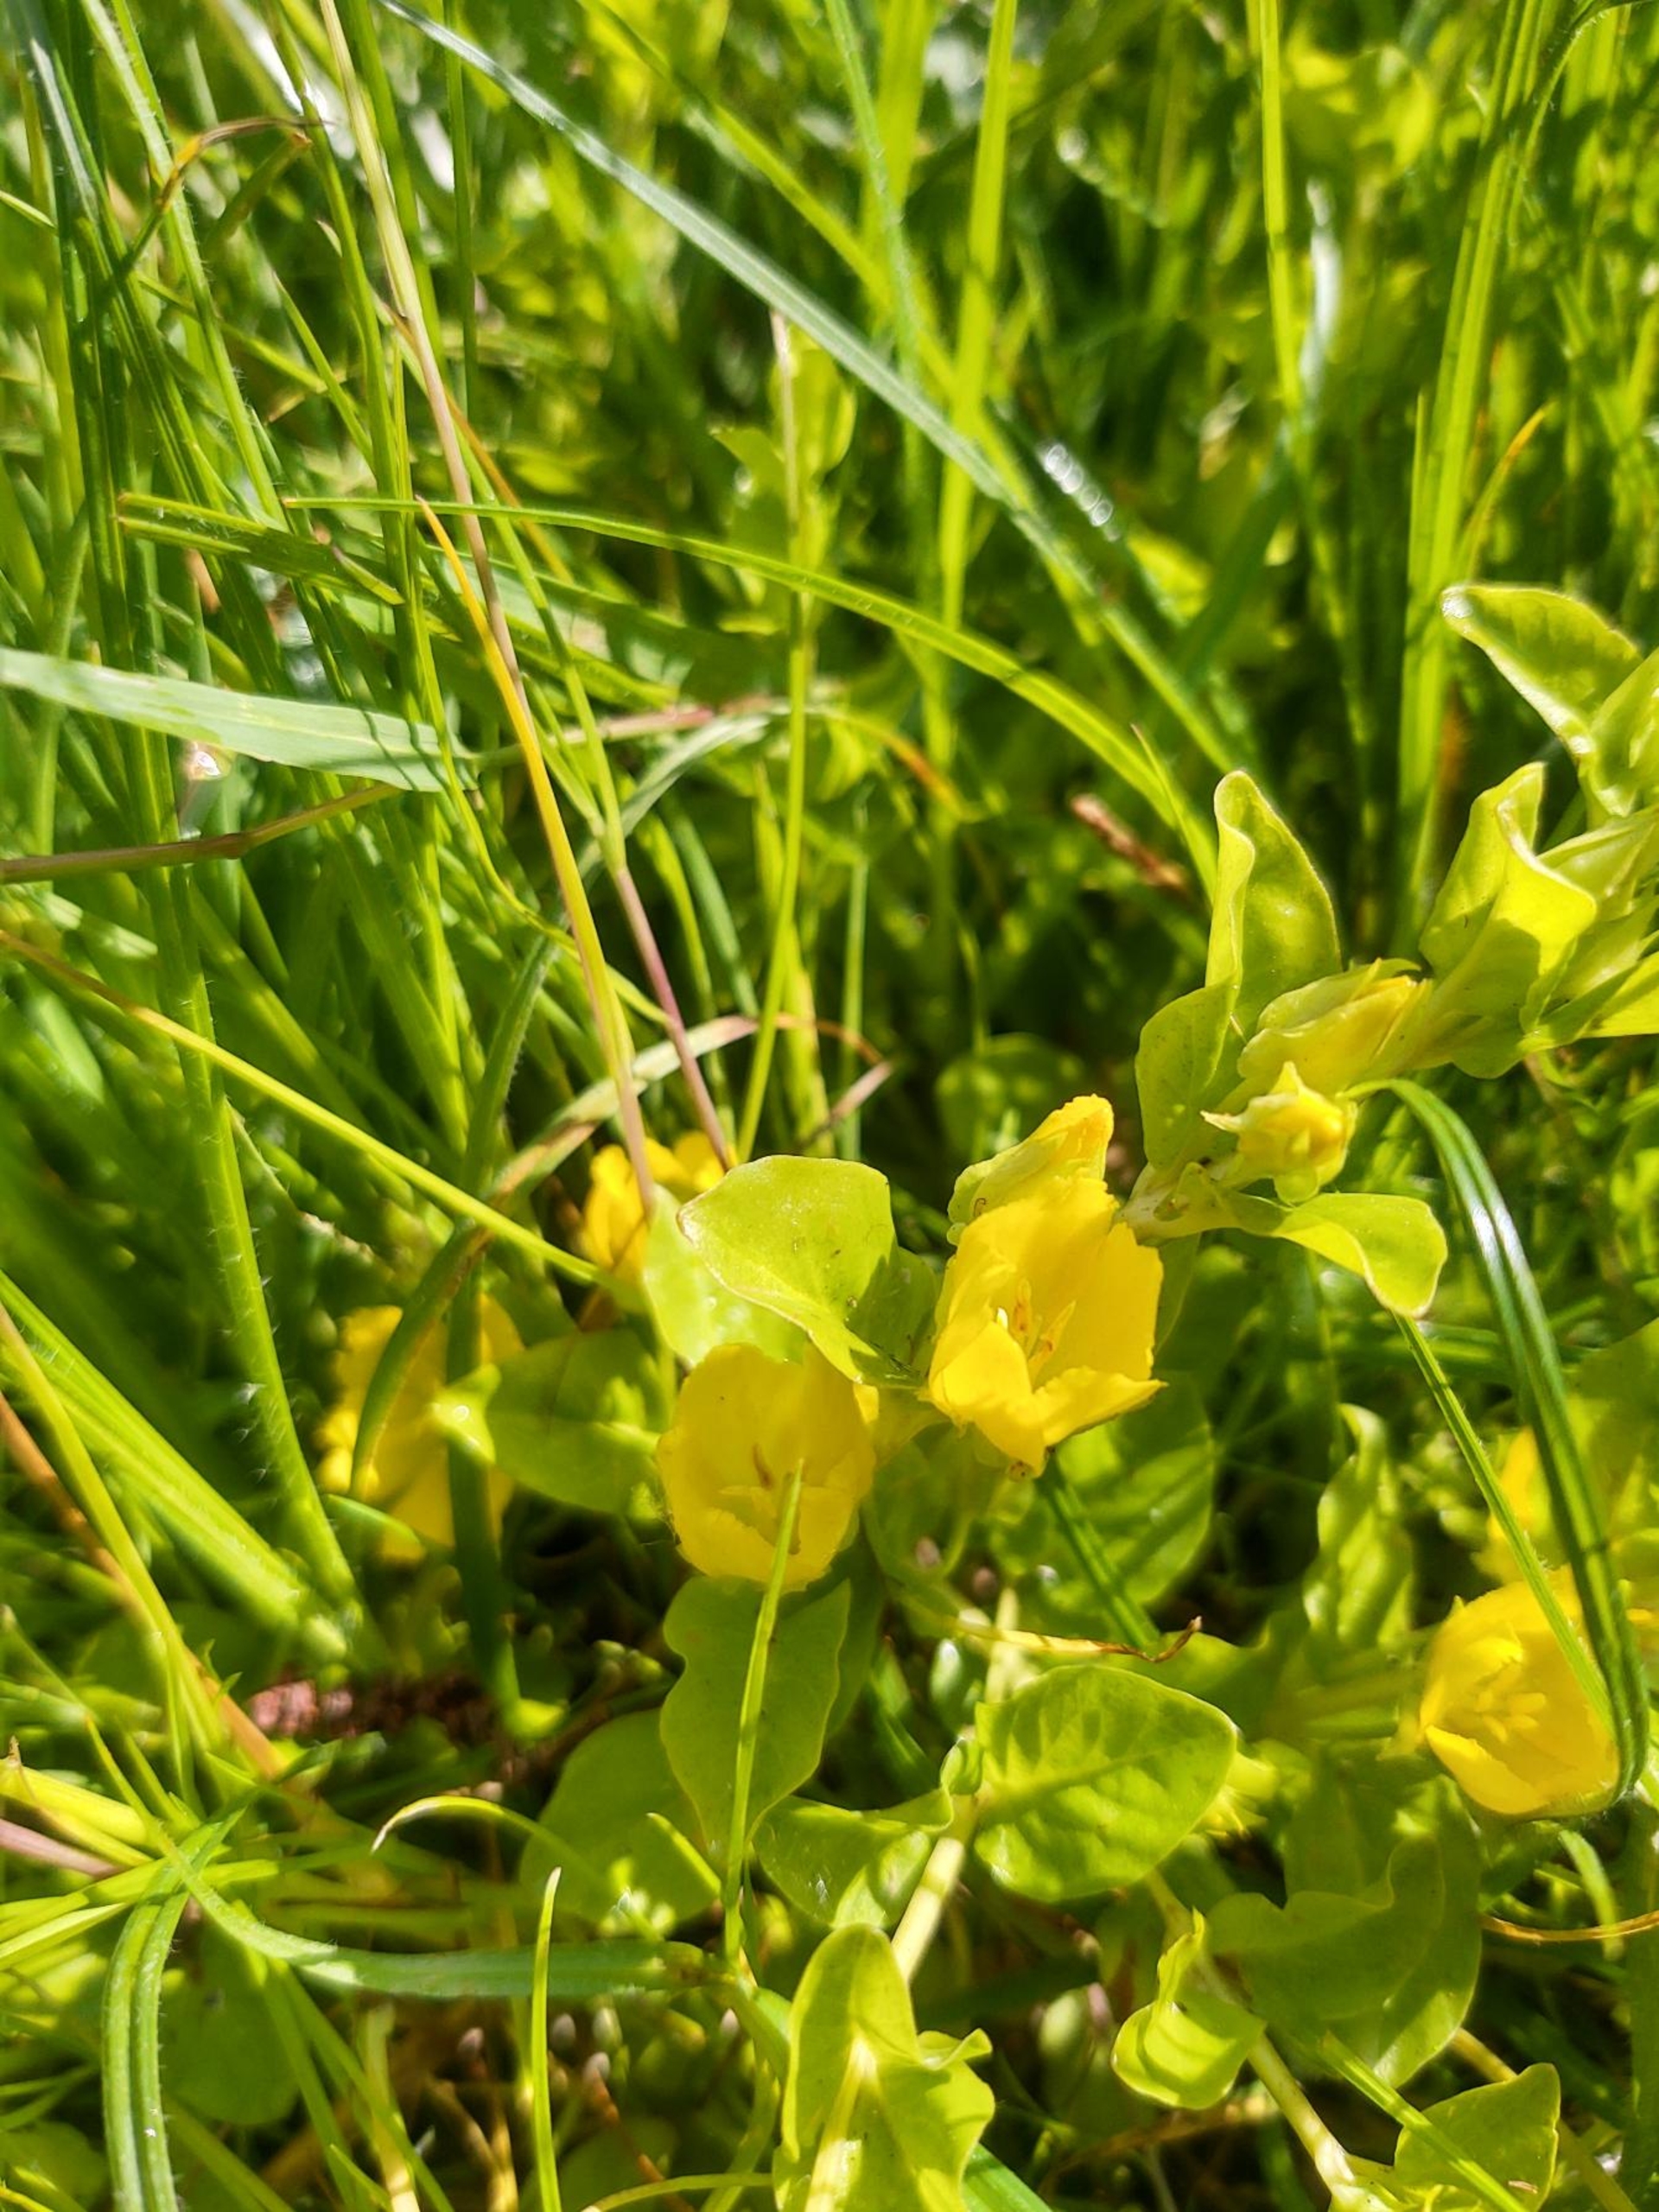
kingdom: Plantae
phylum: Tracheophyta
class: Magnoliopsida
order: Ericales
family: Primulaceae
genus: Lysimachia
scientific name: Lysimachia nummularia
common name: Pengebladet fredløs
